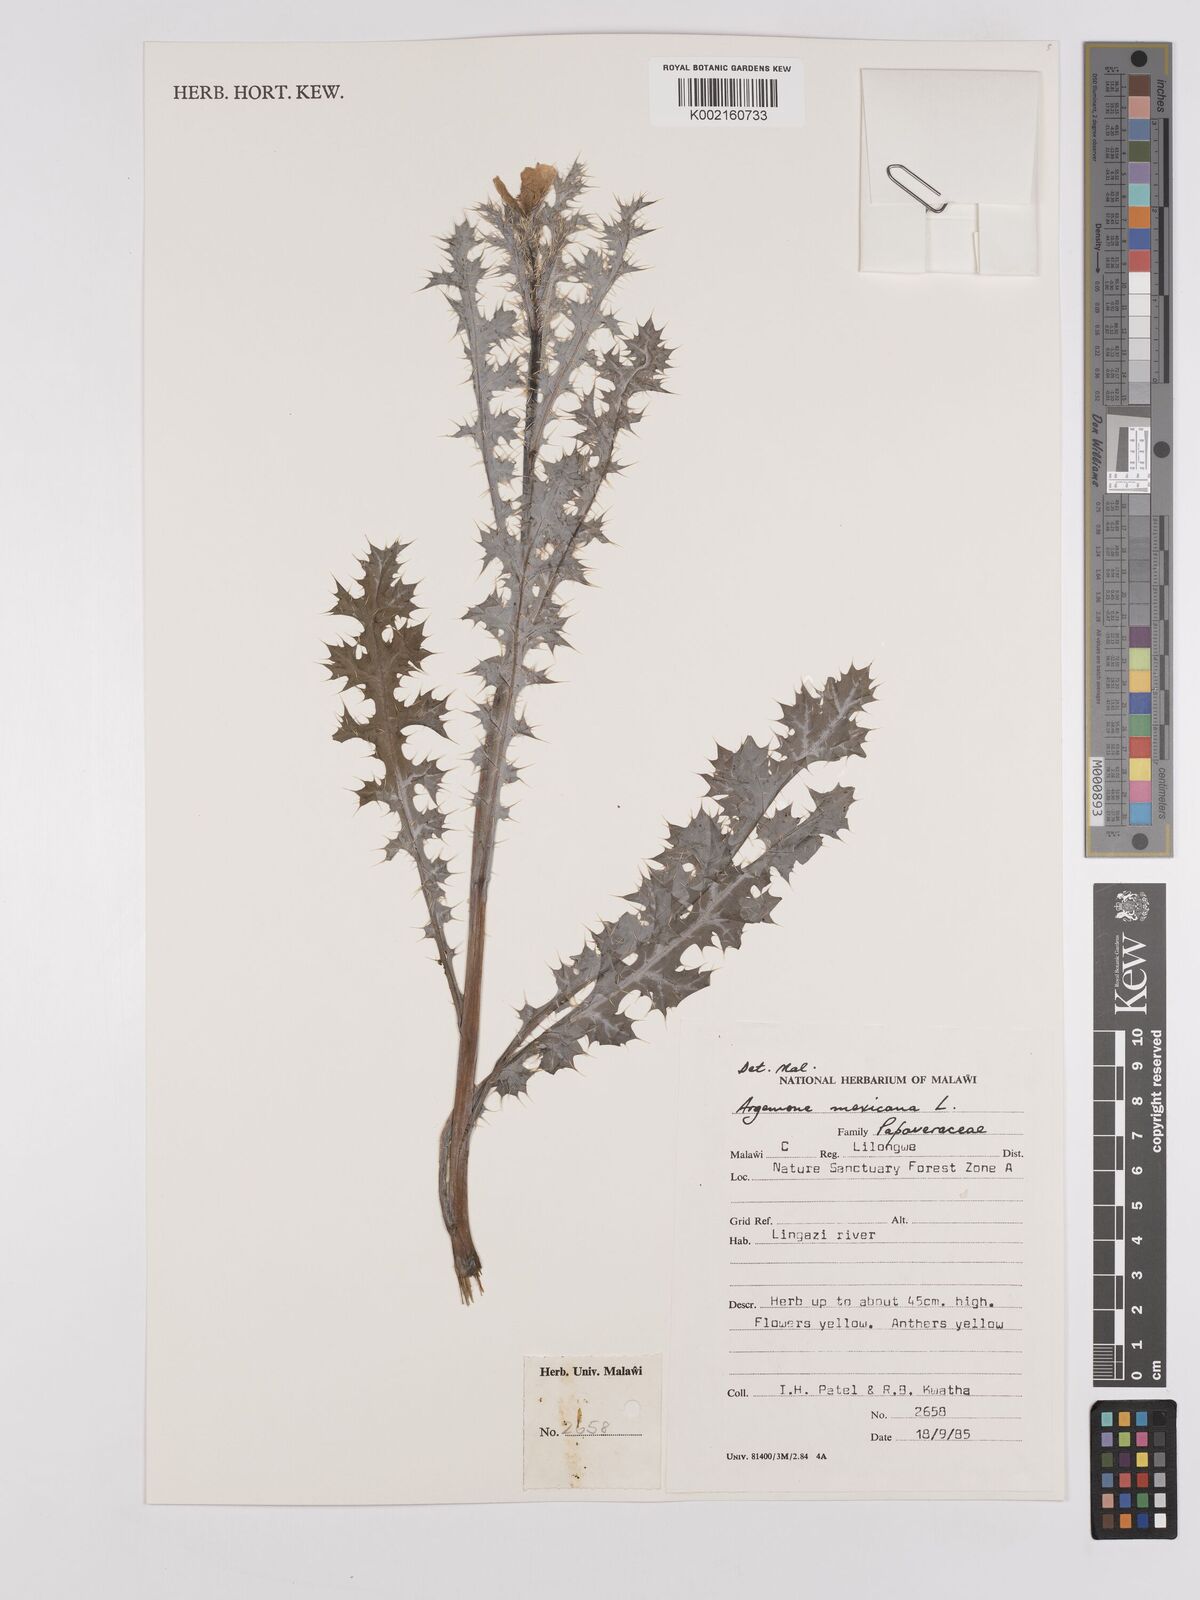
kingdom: Plantae
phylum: Tracheophyta
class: Magnoliopsida
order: Ranunculales
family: Papaveraceae
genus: Argemone
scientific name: Argemone mexicana
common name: Mexican poppy
